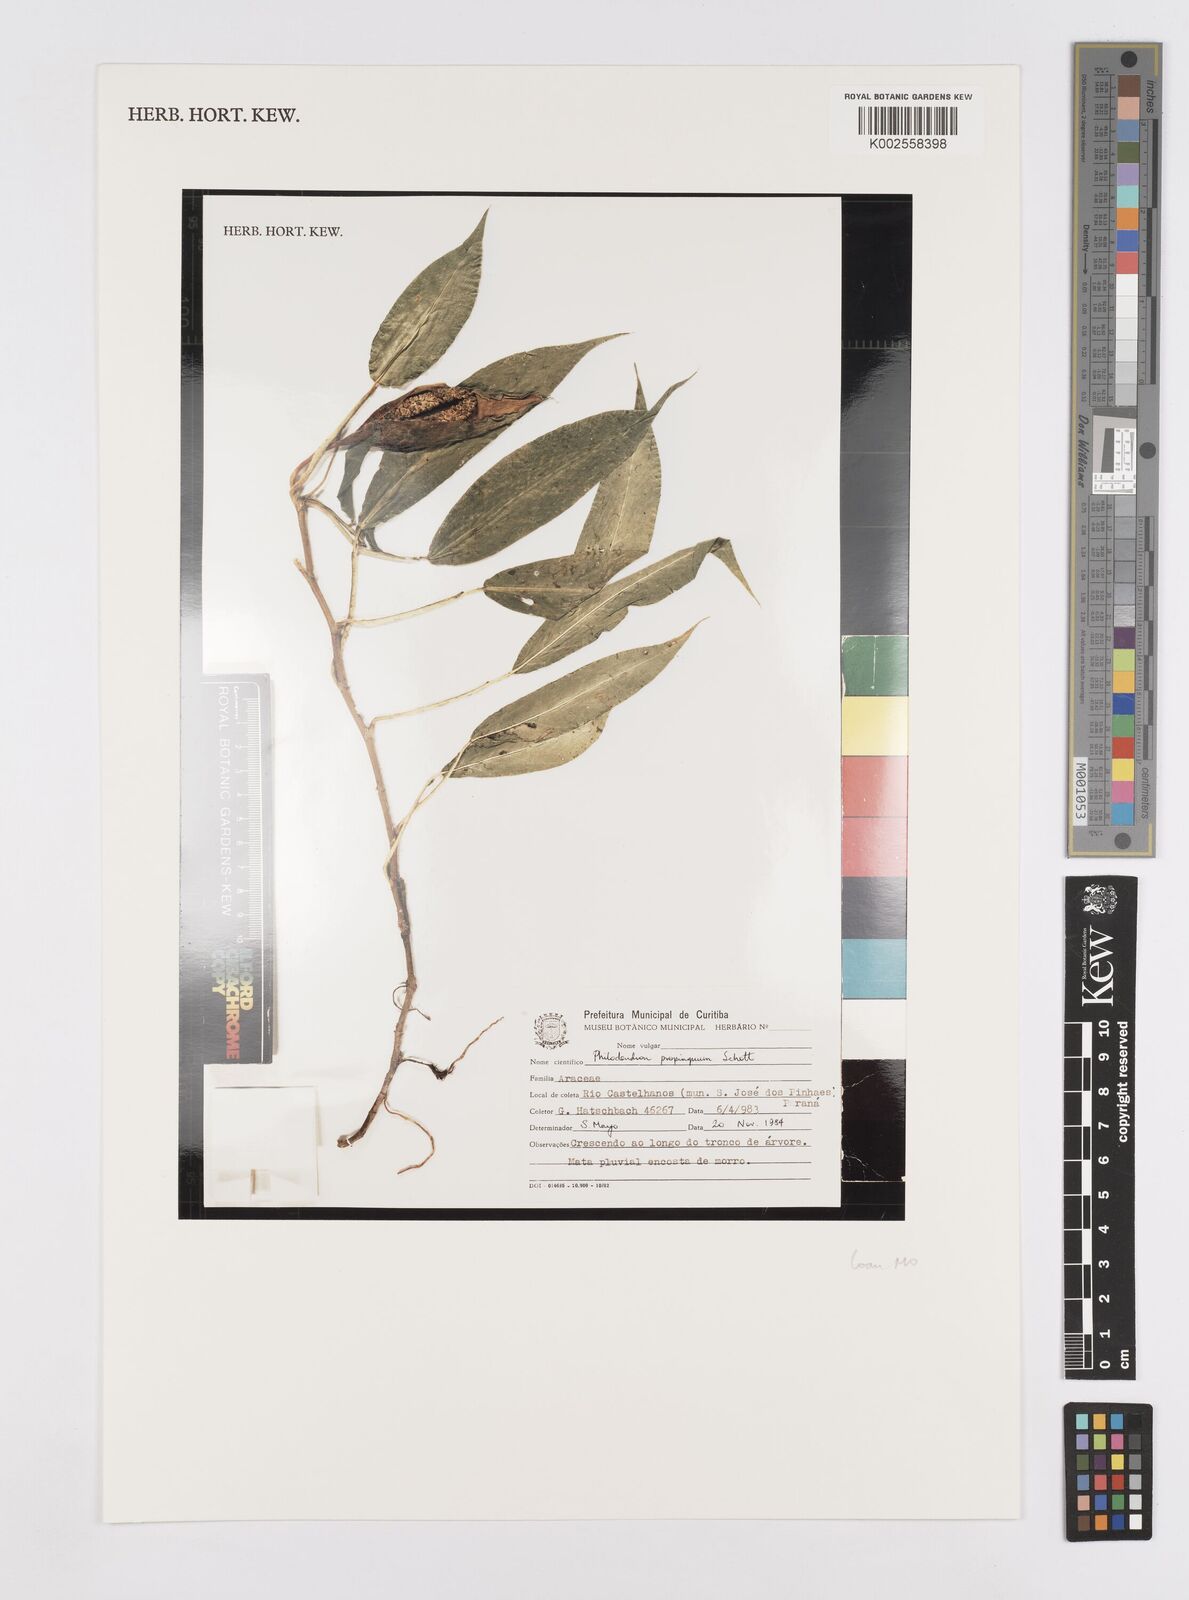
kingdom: Plantae
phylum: Tracheophyta
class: Liliopsida
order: Alismatales
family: Araceae
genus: Philodendron
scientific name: Philodendron propinquum
